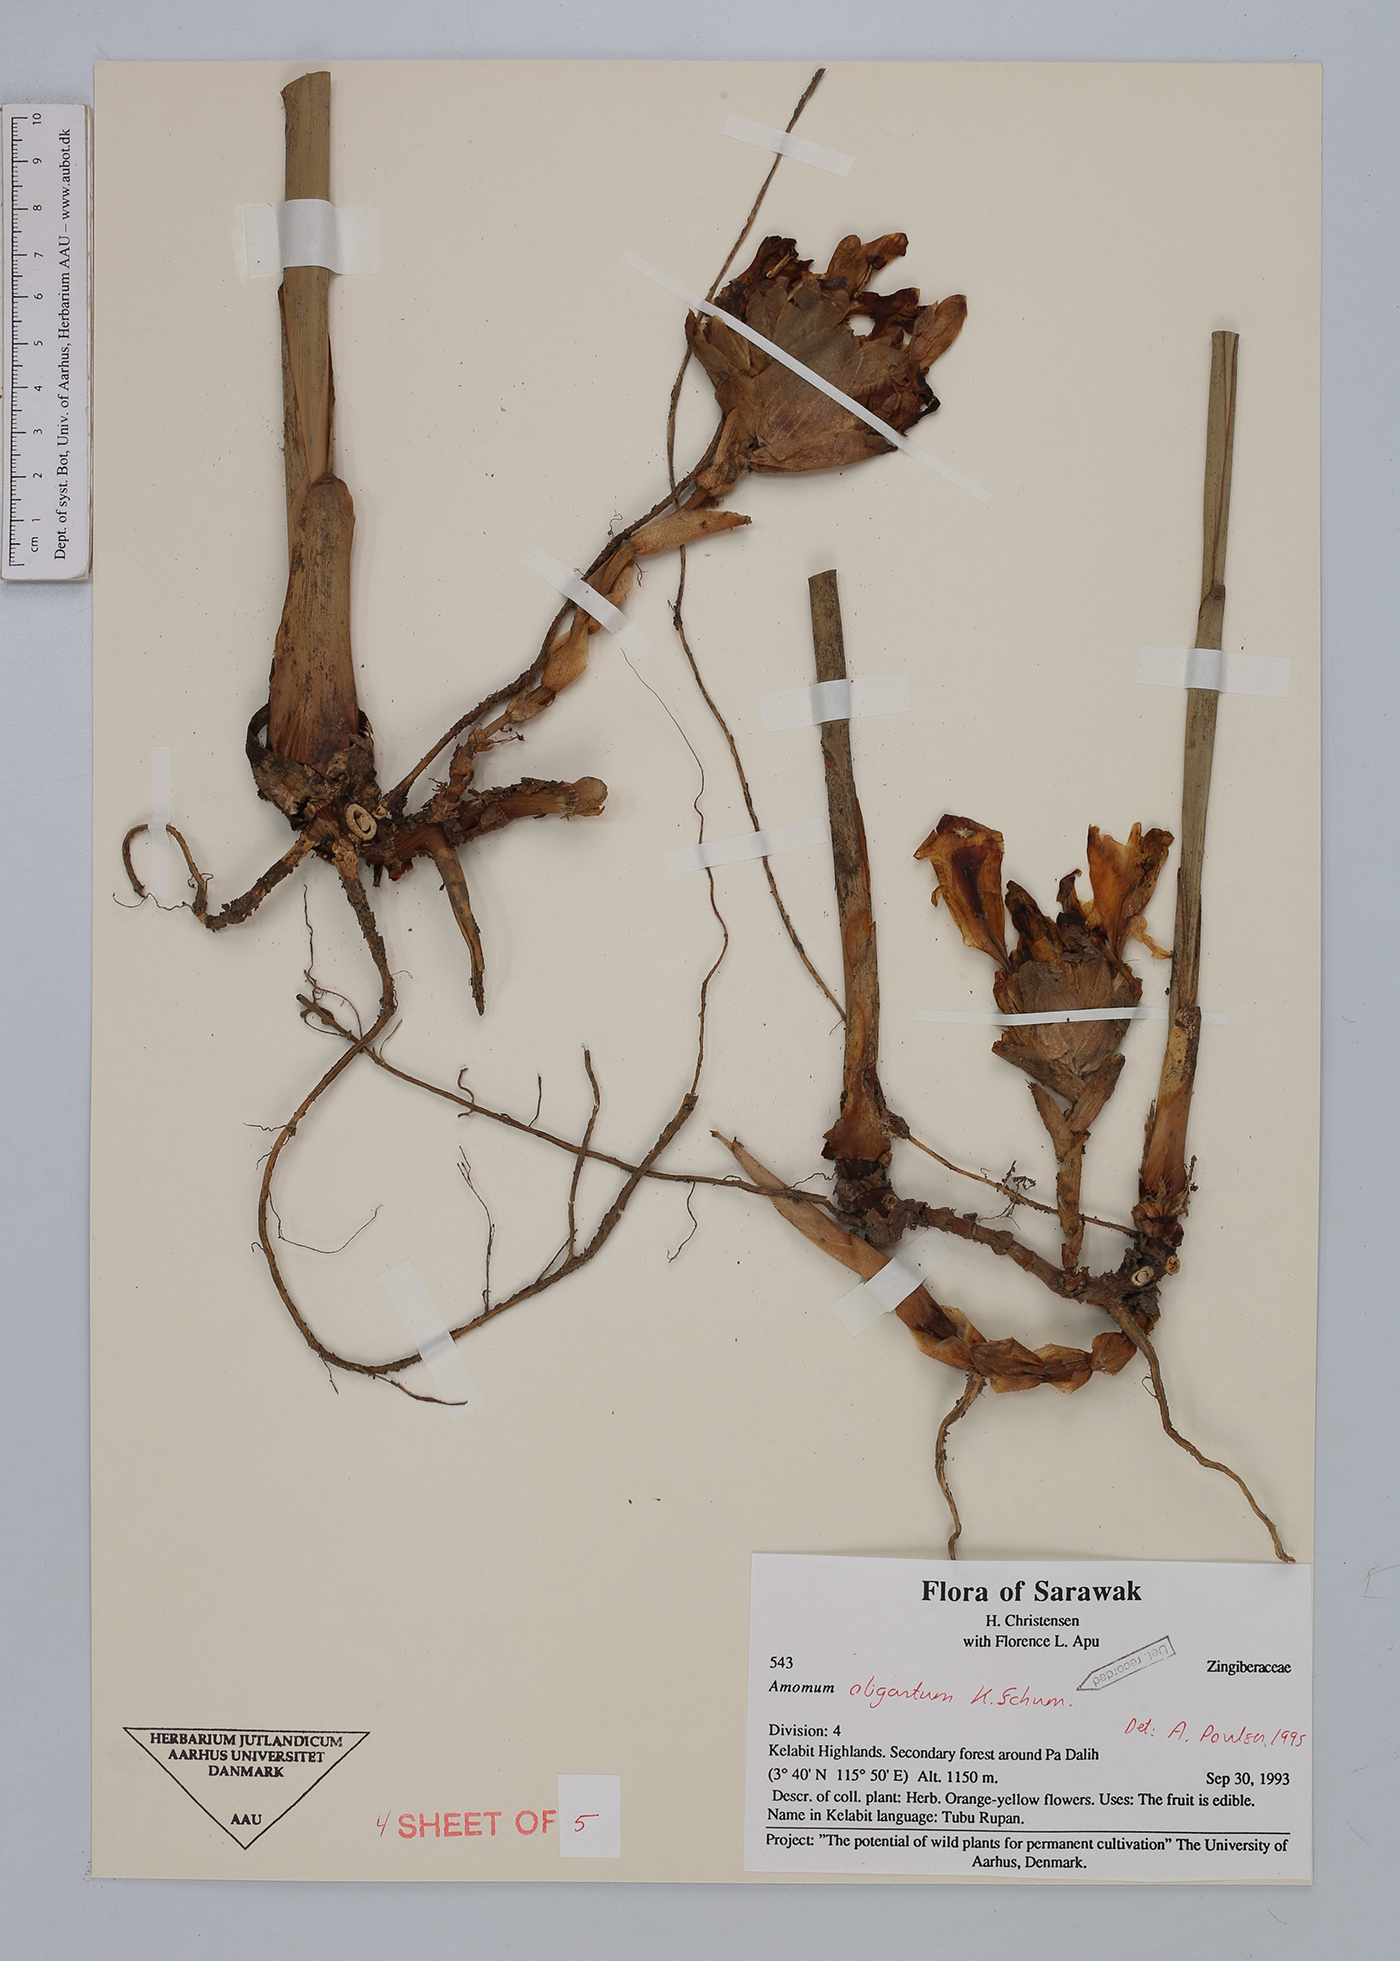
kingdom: Plantae
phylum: Tracheophyta
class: Liliopsida
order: Zingiberales
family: Zingiberaceae
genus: Meistera
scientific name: Meistera oligantha
